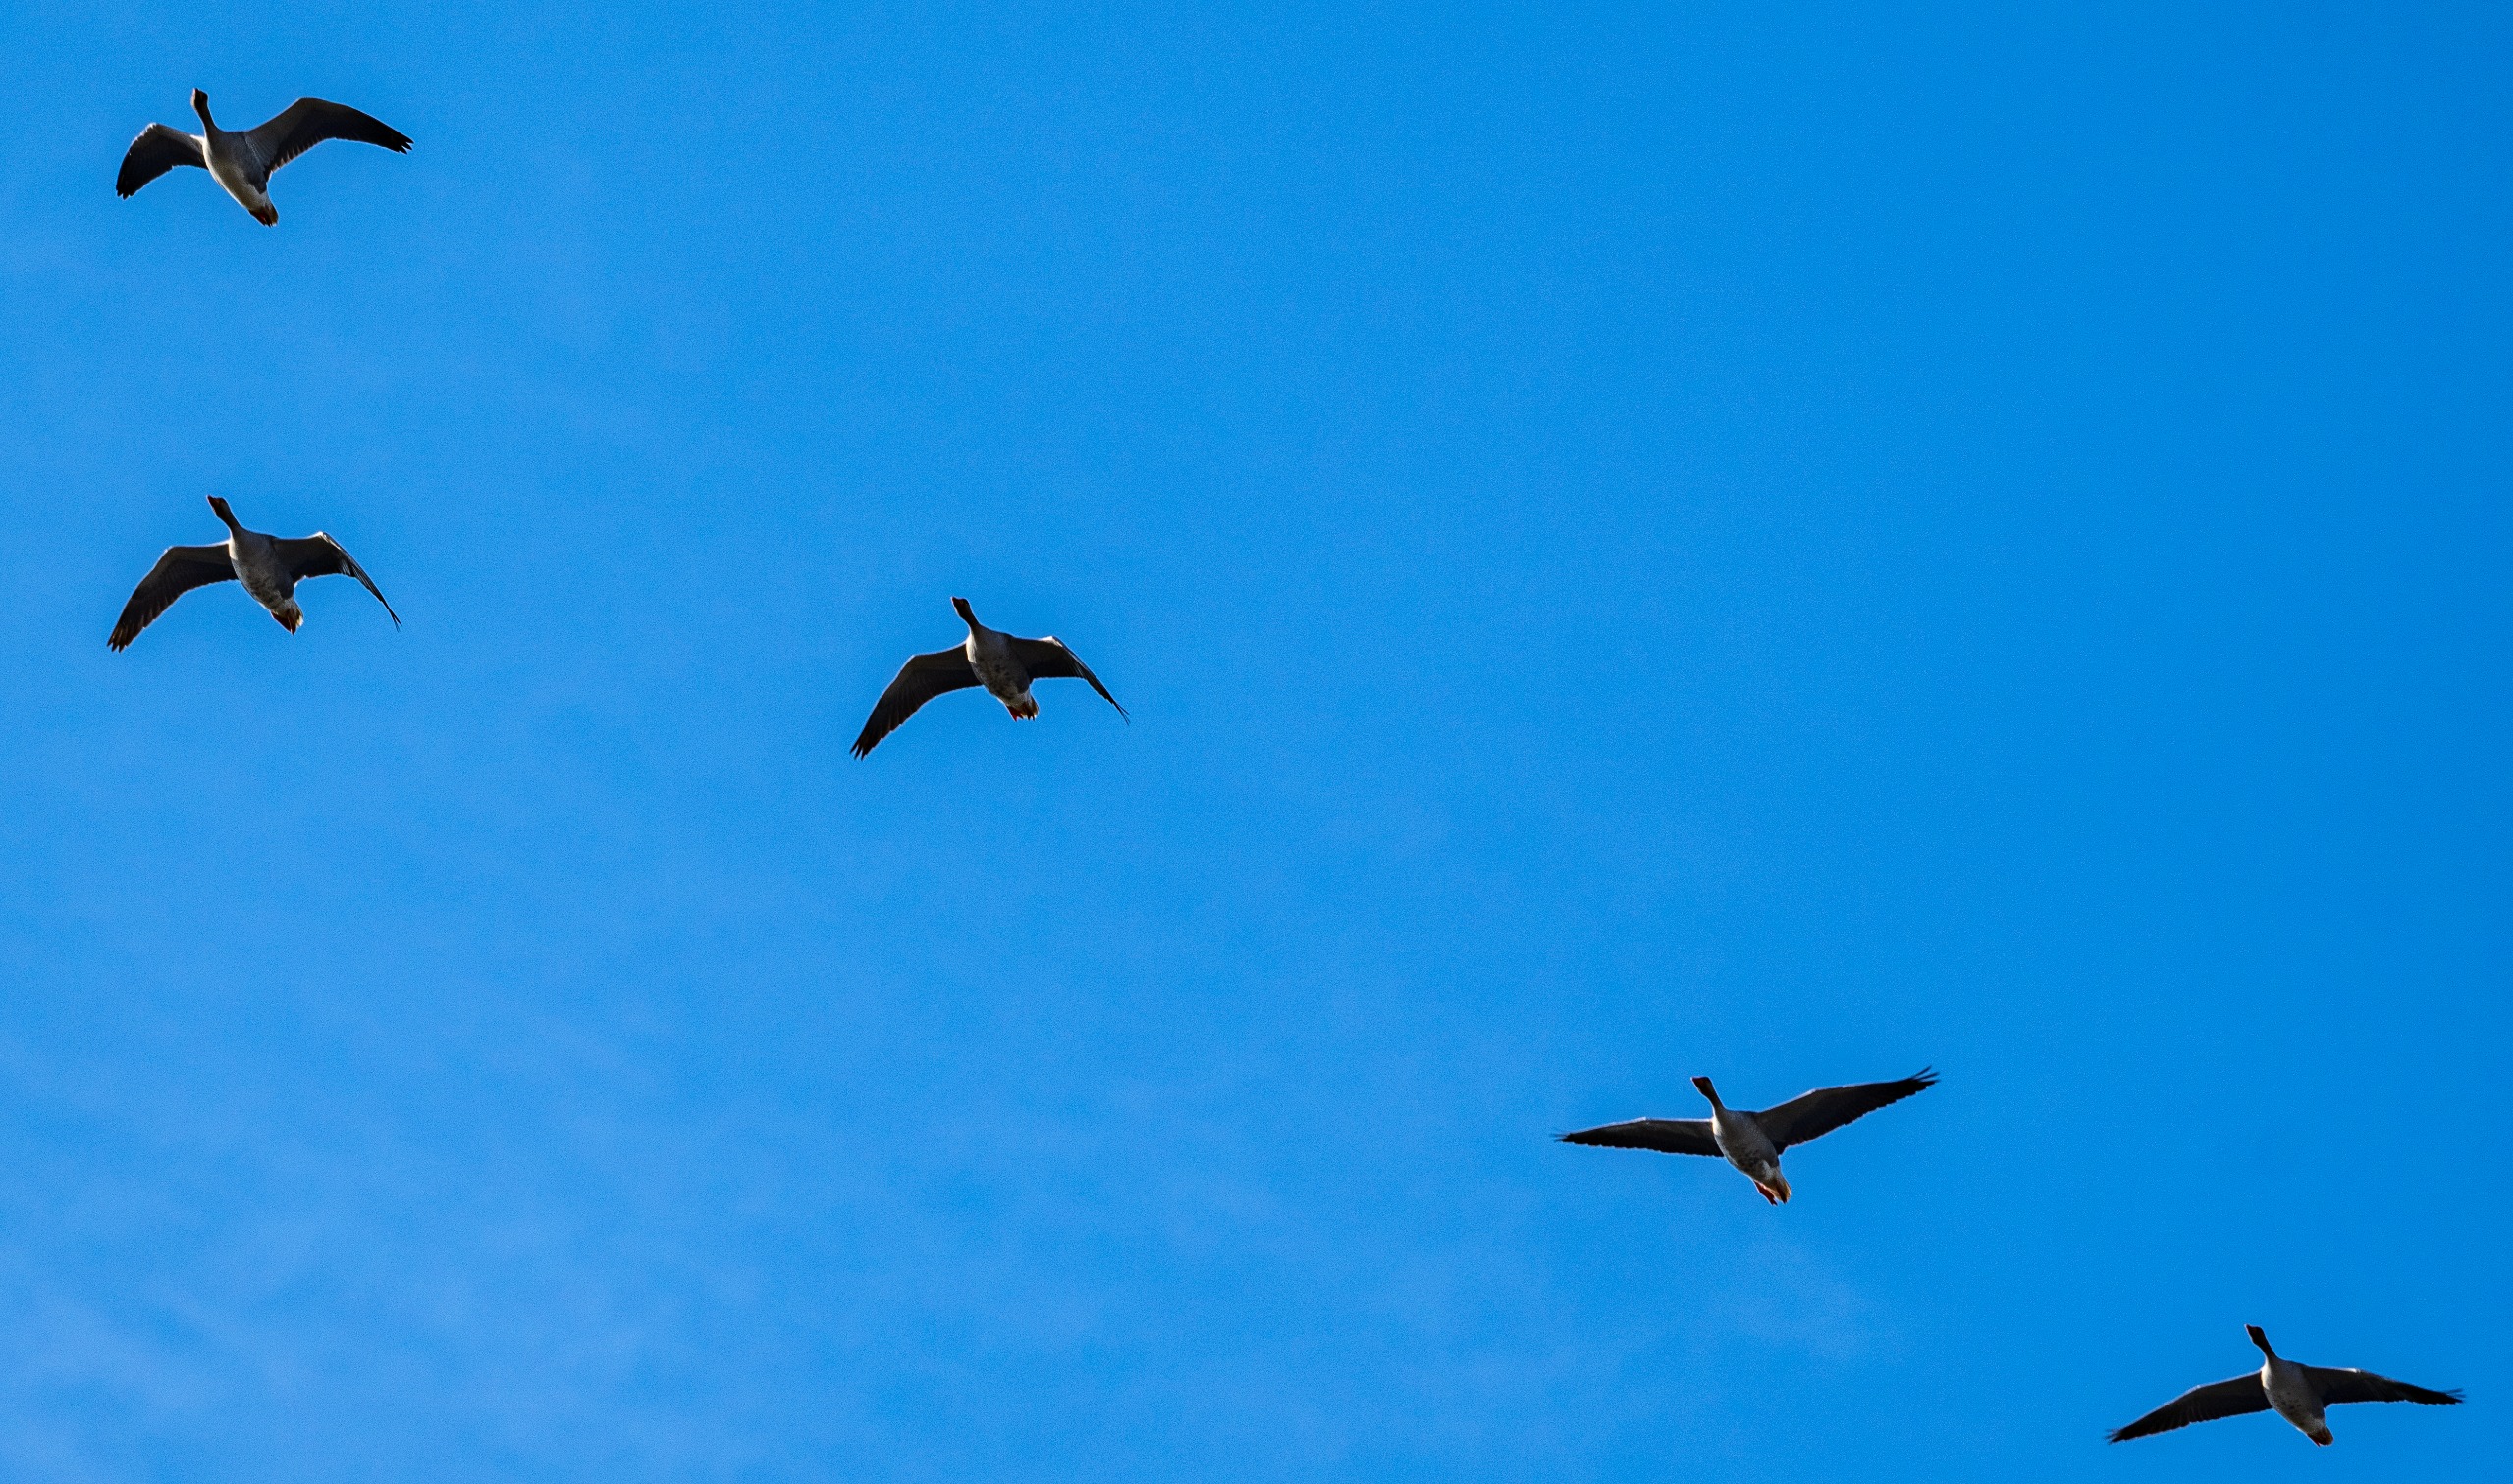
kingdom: Animalia
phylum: Chordata
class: Aves
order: Anseriformes
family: Anatidae
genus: Anser
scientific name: Anser anser
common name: Grågås
